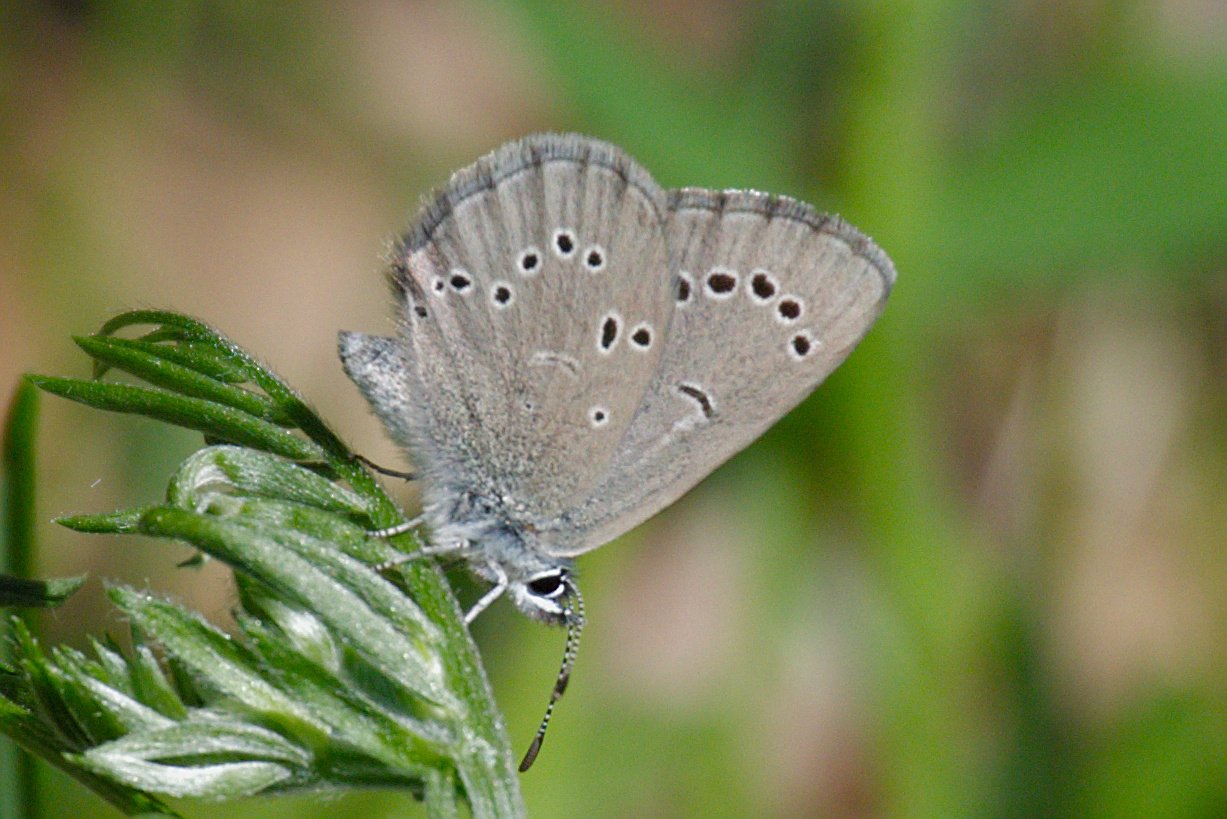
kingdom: Animalia
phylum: Arthropoda
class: Insecta
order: Lepidoptera
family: Lycaenidae
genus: Glaucopsyche
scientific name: Glaucopsyche lygdamus
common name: Silvery Blue
